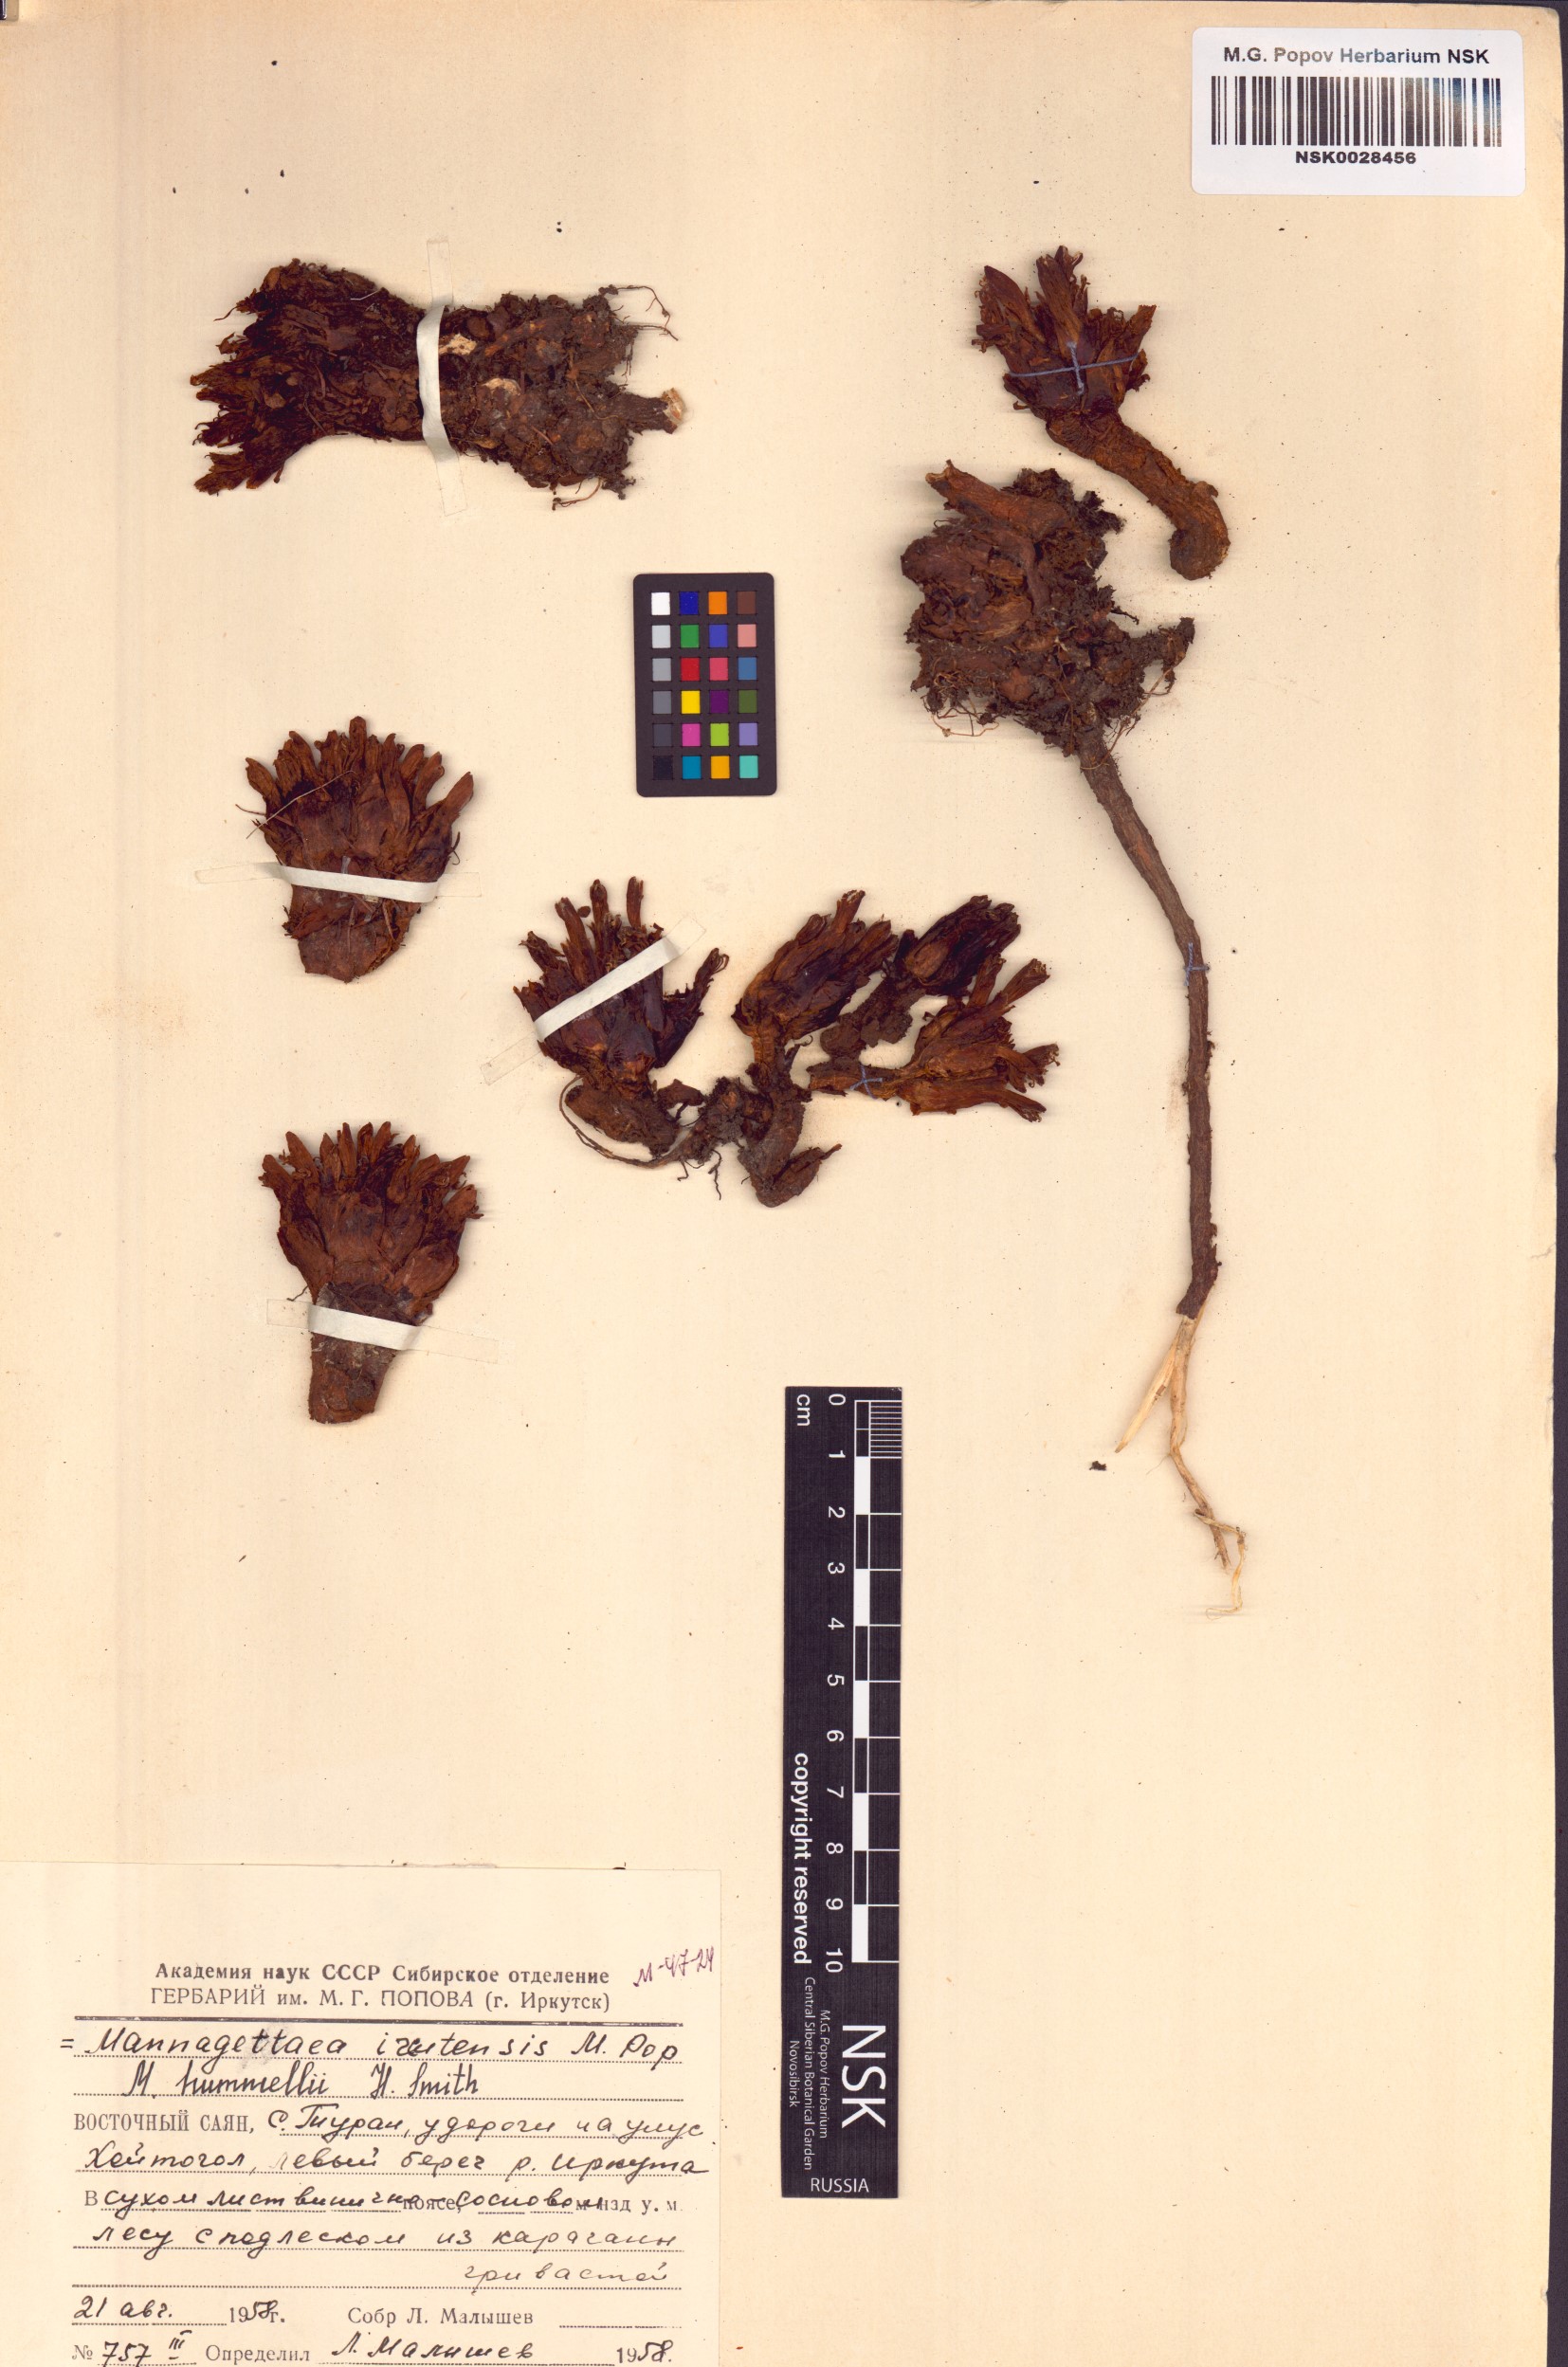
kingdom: Plantae
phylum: Tracheophyta
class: Magnoliopsida
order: Lamiales
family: Orobanchaceae
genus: Mannagettaea
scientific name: Mannagettaea hummelii
